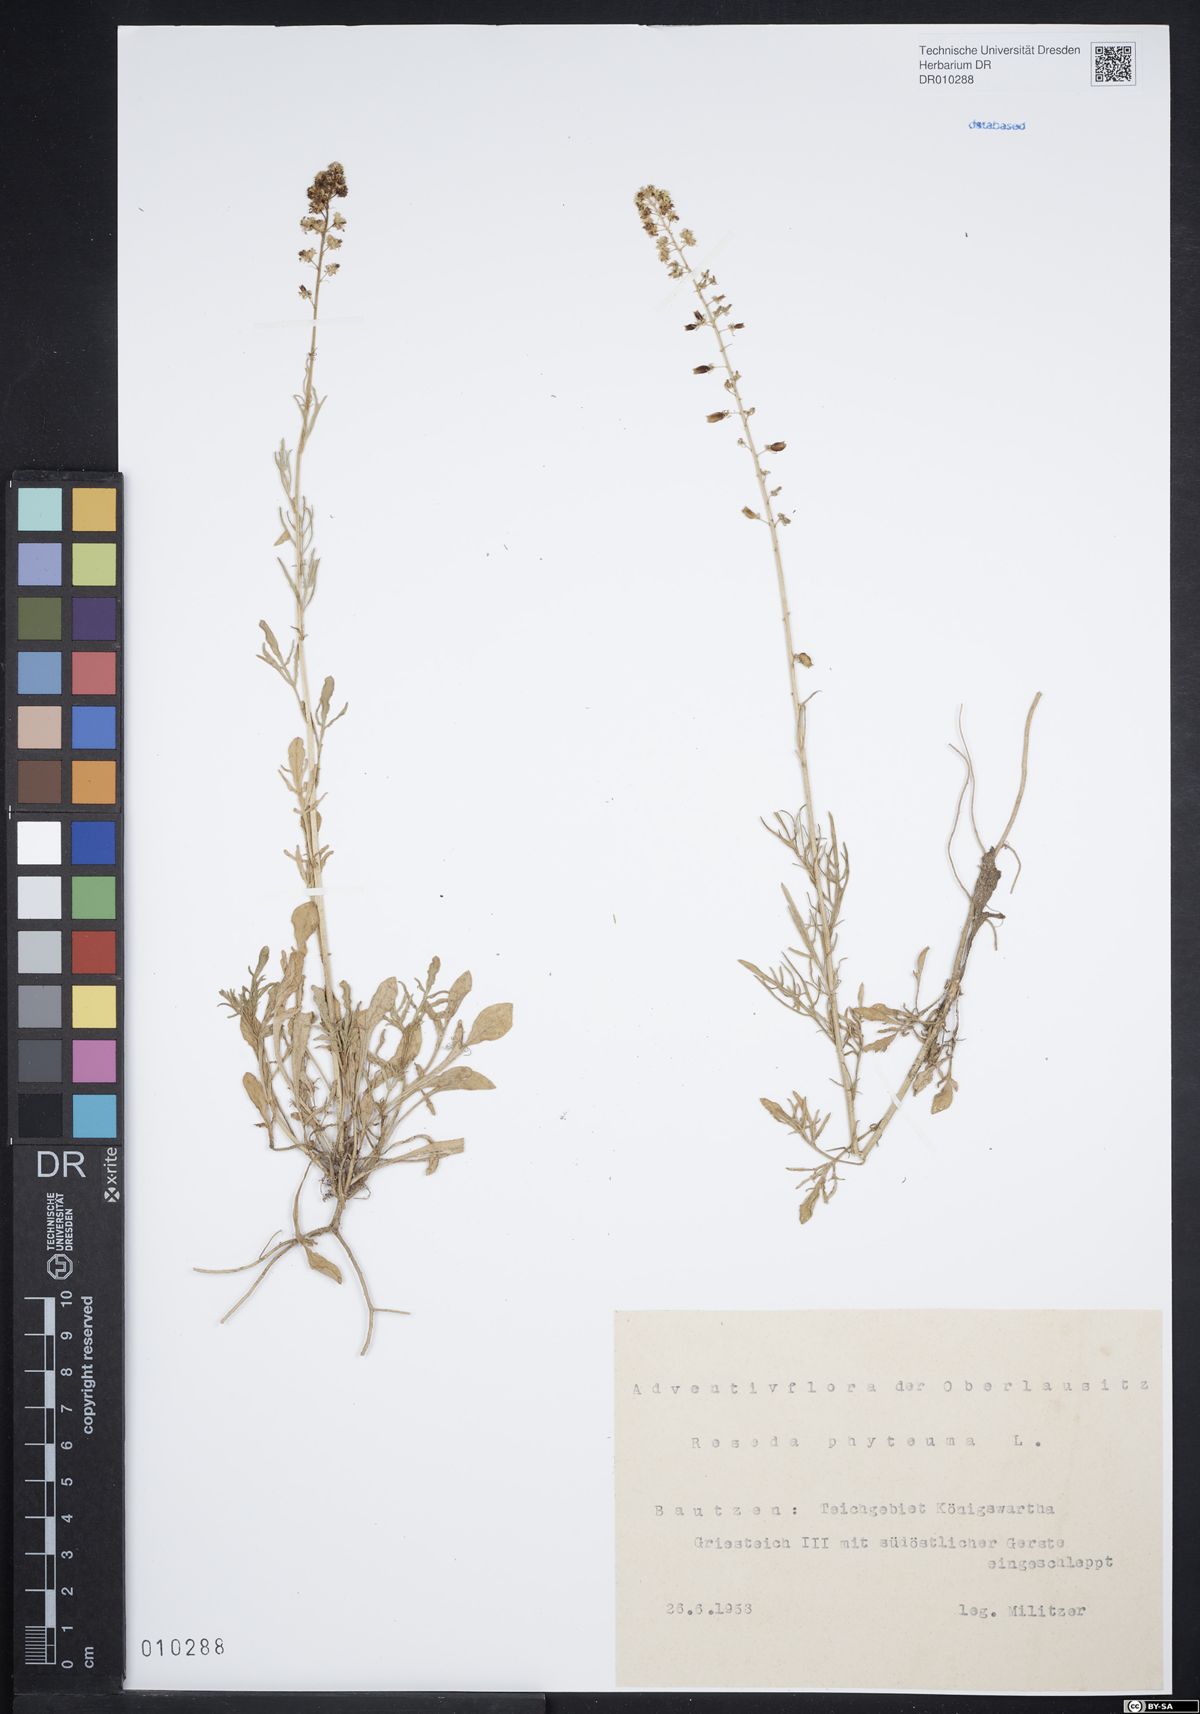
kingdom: Plantae
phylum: Tracheophyta
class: Magnoliopsida
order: Brassicales
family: Resedaceae
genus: Reseda
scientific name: Reseda phyteuma
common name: Corn mignonette
